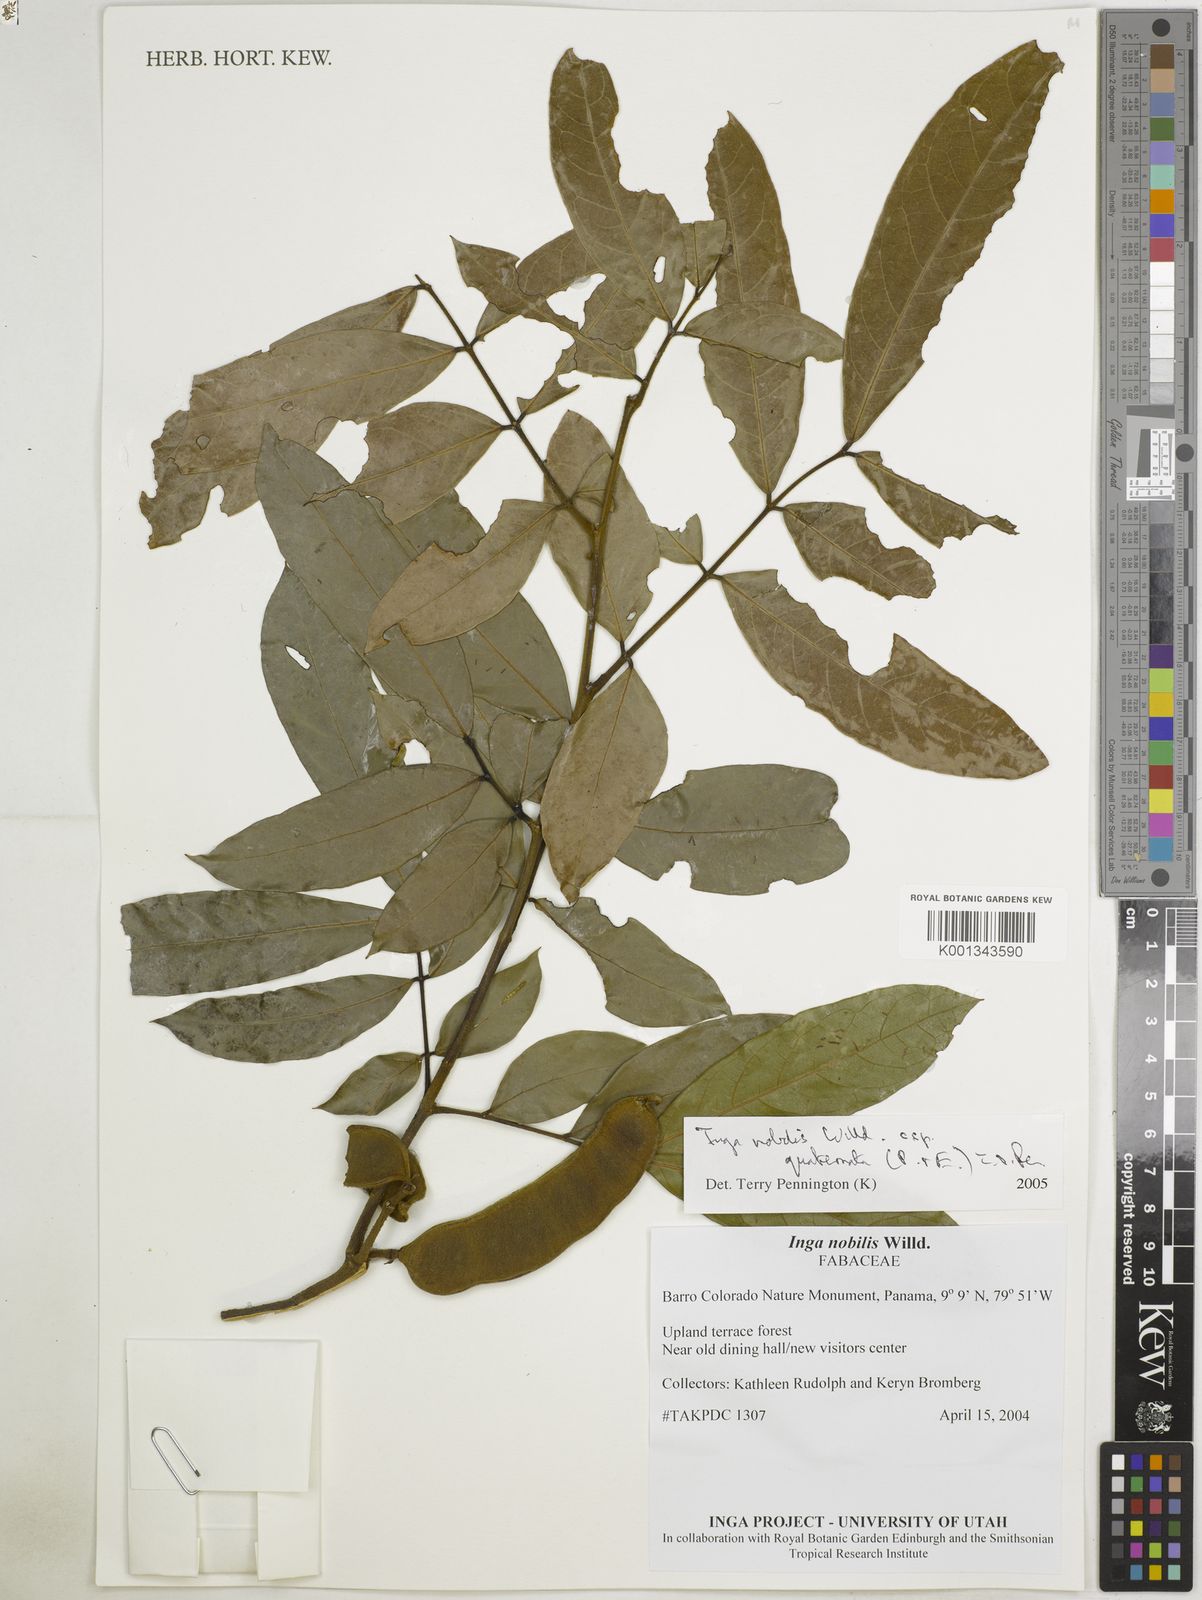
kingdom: Plantae
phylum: Tracheophyta
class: Magnoliopsida
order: Fabales
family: Fabaceae
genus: Inga
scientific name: Inga nobilis
